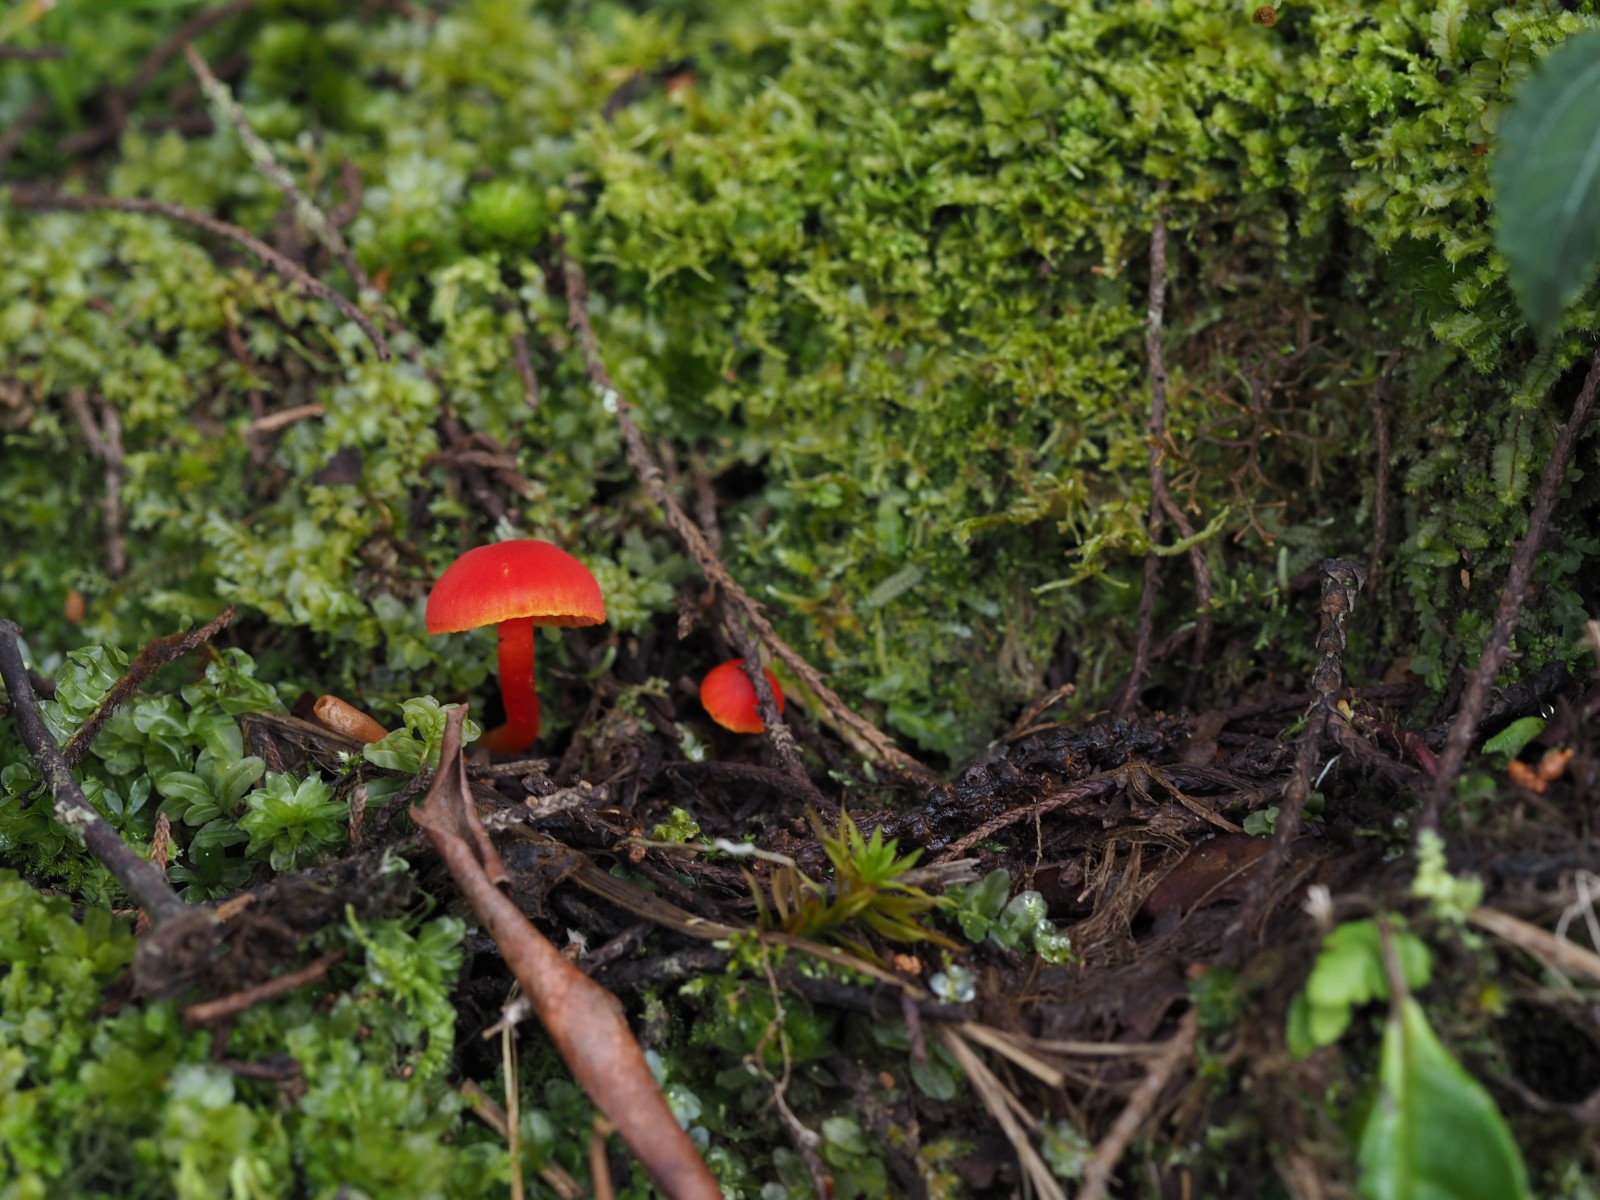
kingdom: Fungi
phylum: Basidiomycota
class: Agaricomycetes
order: Agaricales
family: Hygrophoraceae
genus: Hygrocybe
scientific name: Hygrocybe
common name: vokshat
